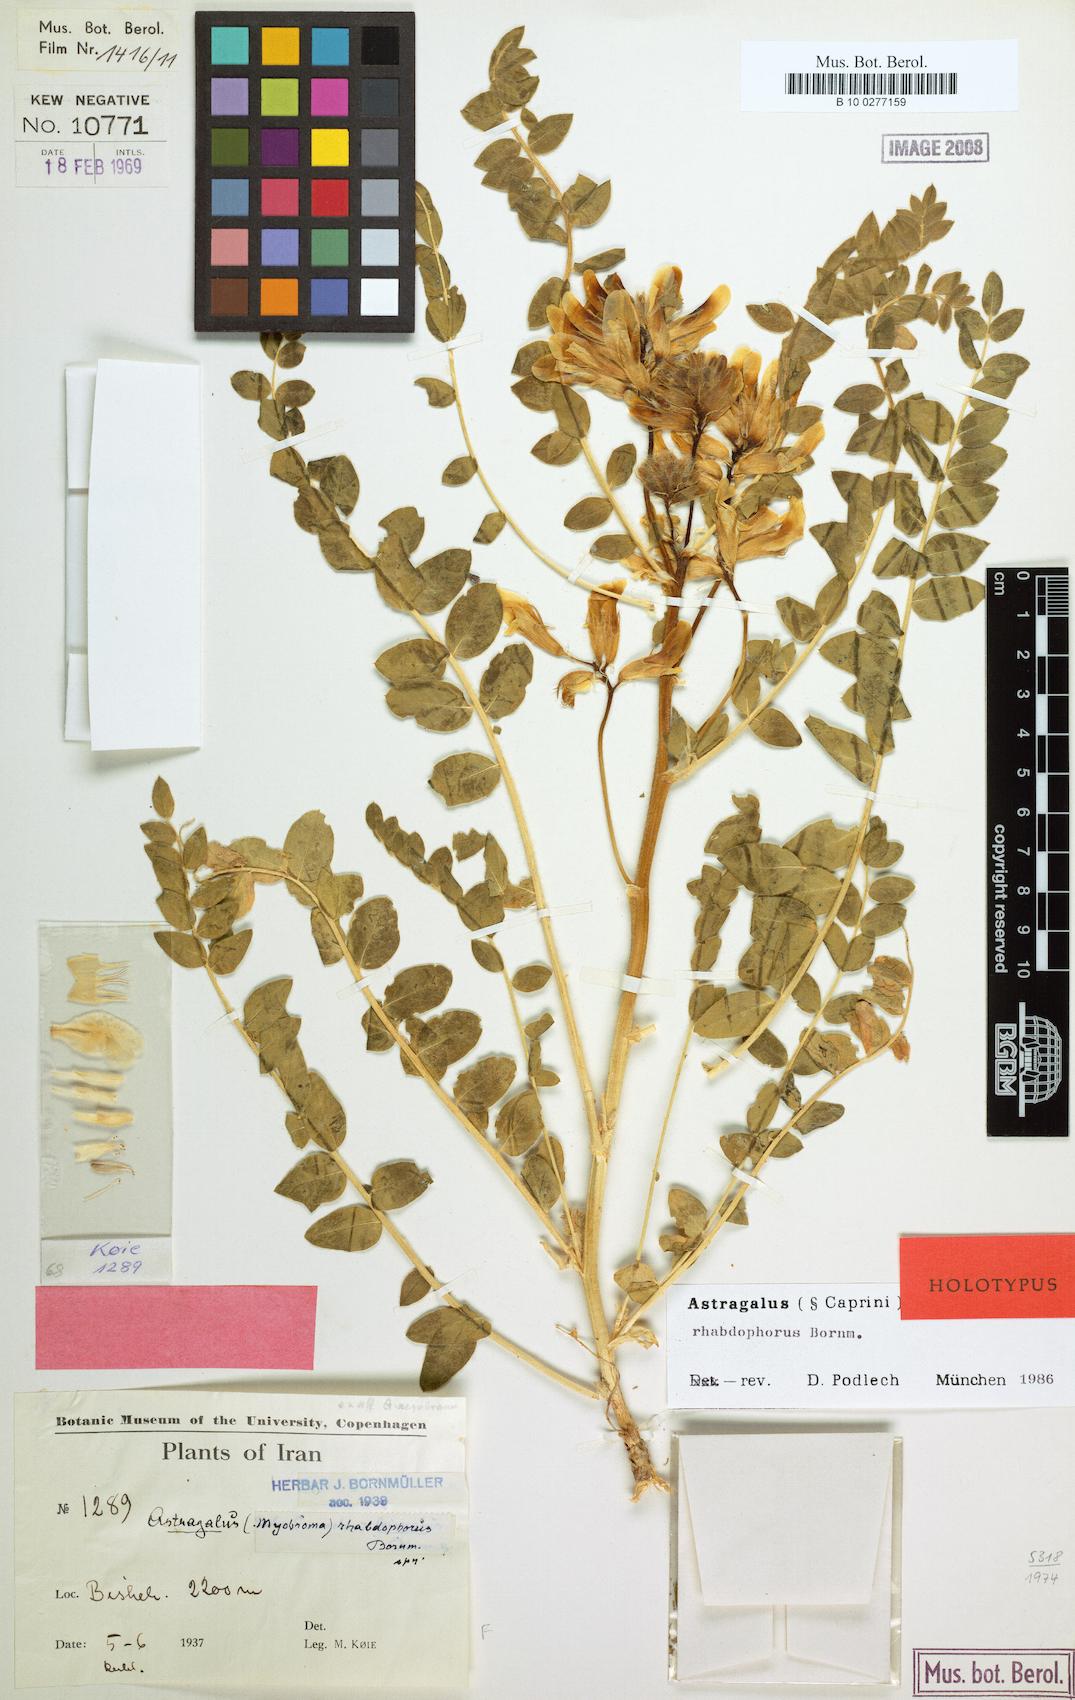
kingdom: Plantae
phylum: Tracheophyta
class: Magnoliopsida
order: Fabales
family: Fabaceae
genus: Astragalus
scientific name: Astragalus rhabdophorus
